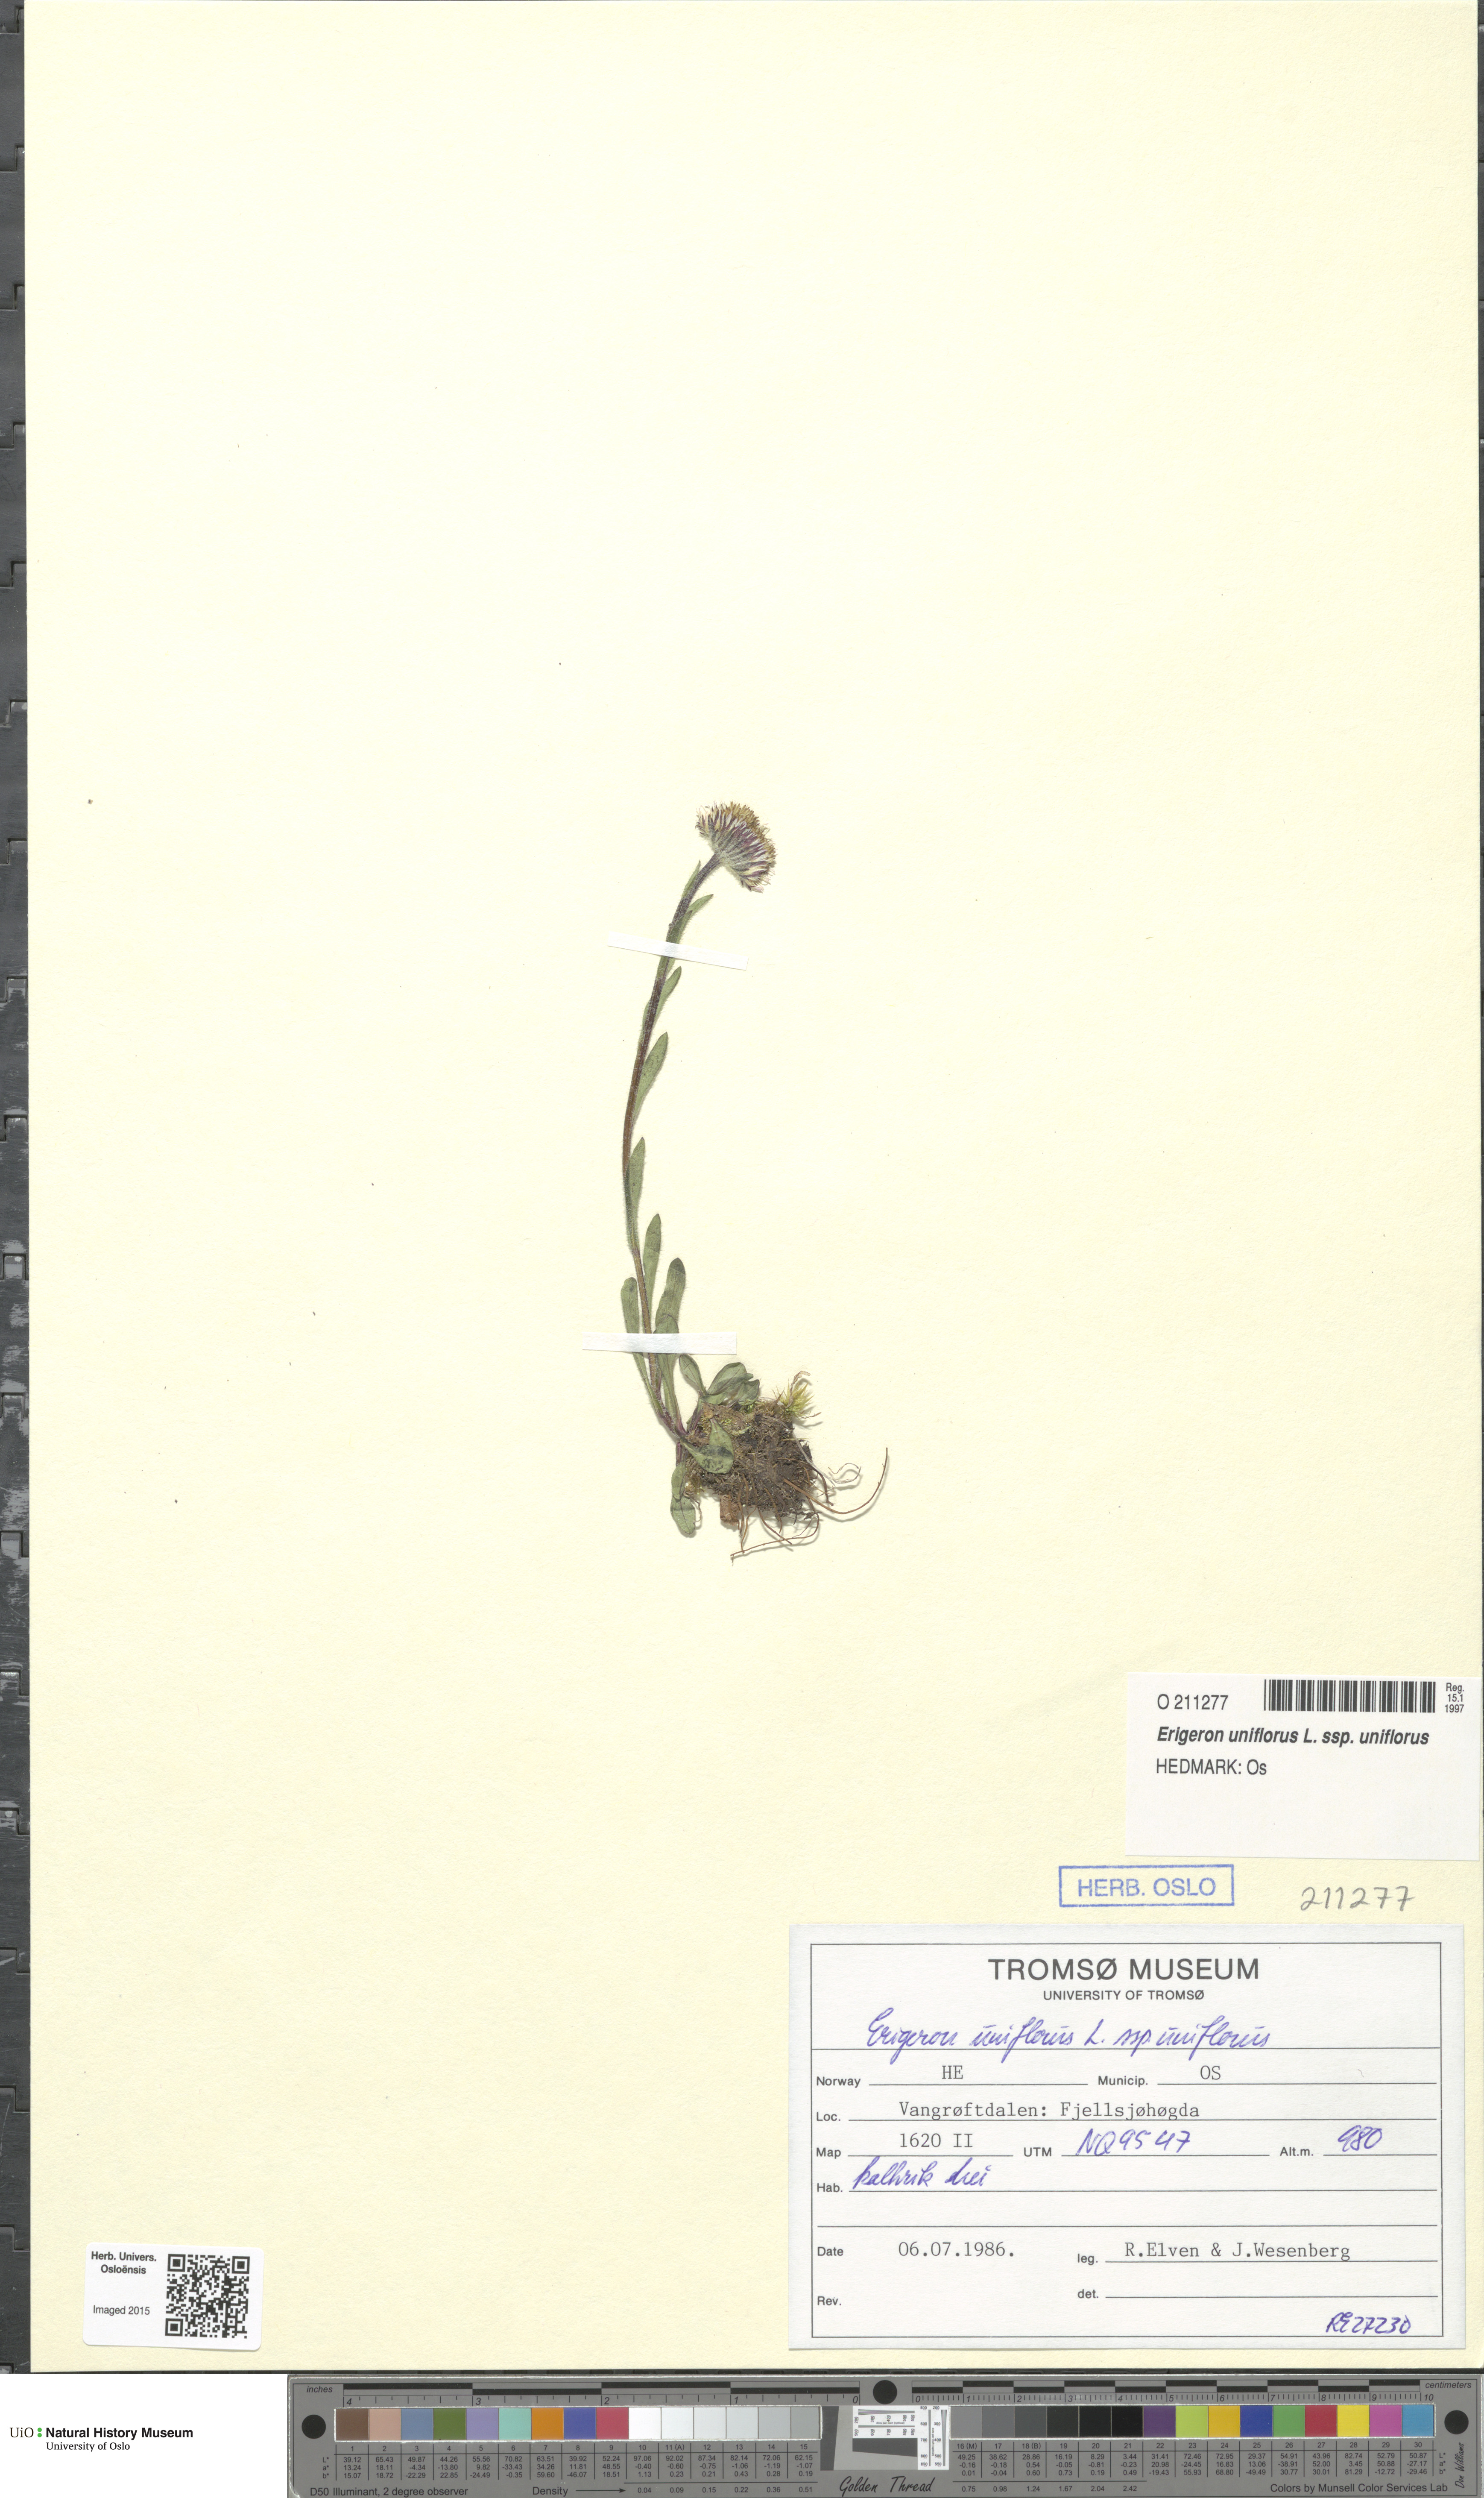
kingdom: Plantae
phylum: Tracheophyta
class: Magnoliopsida
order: Asterales
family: Asteraceae
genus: Erigeron
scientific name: Erigeron uniflorus
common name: Northern daisy
